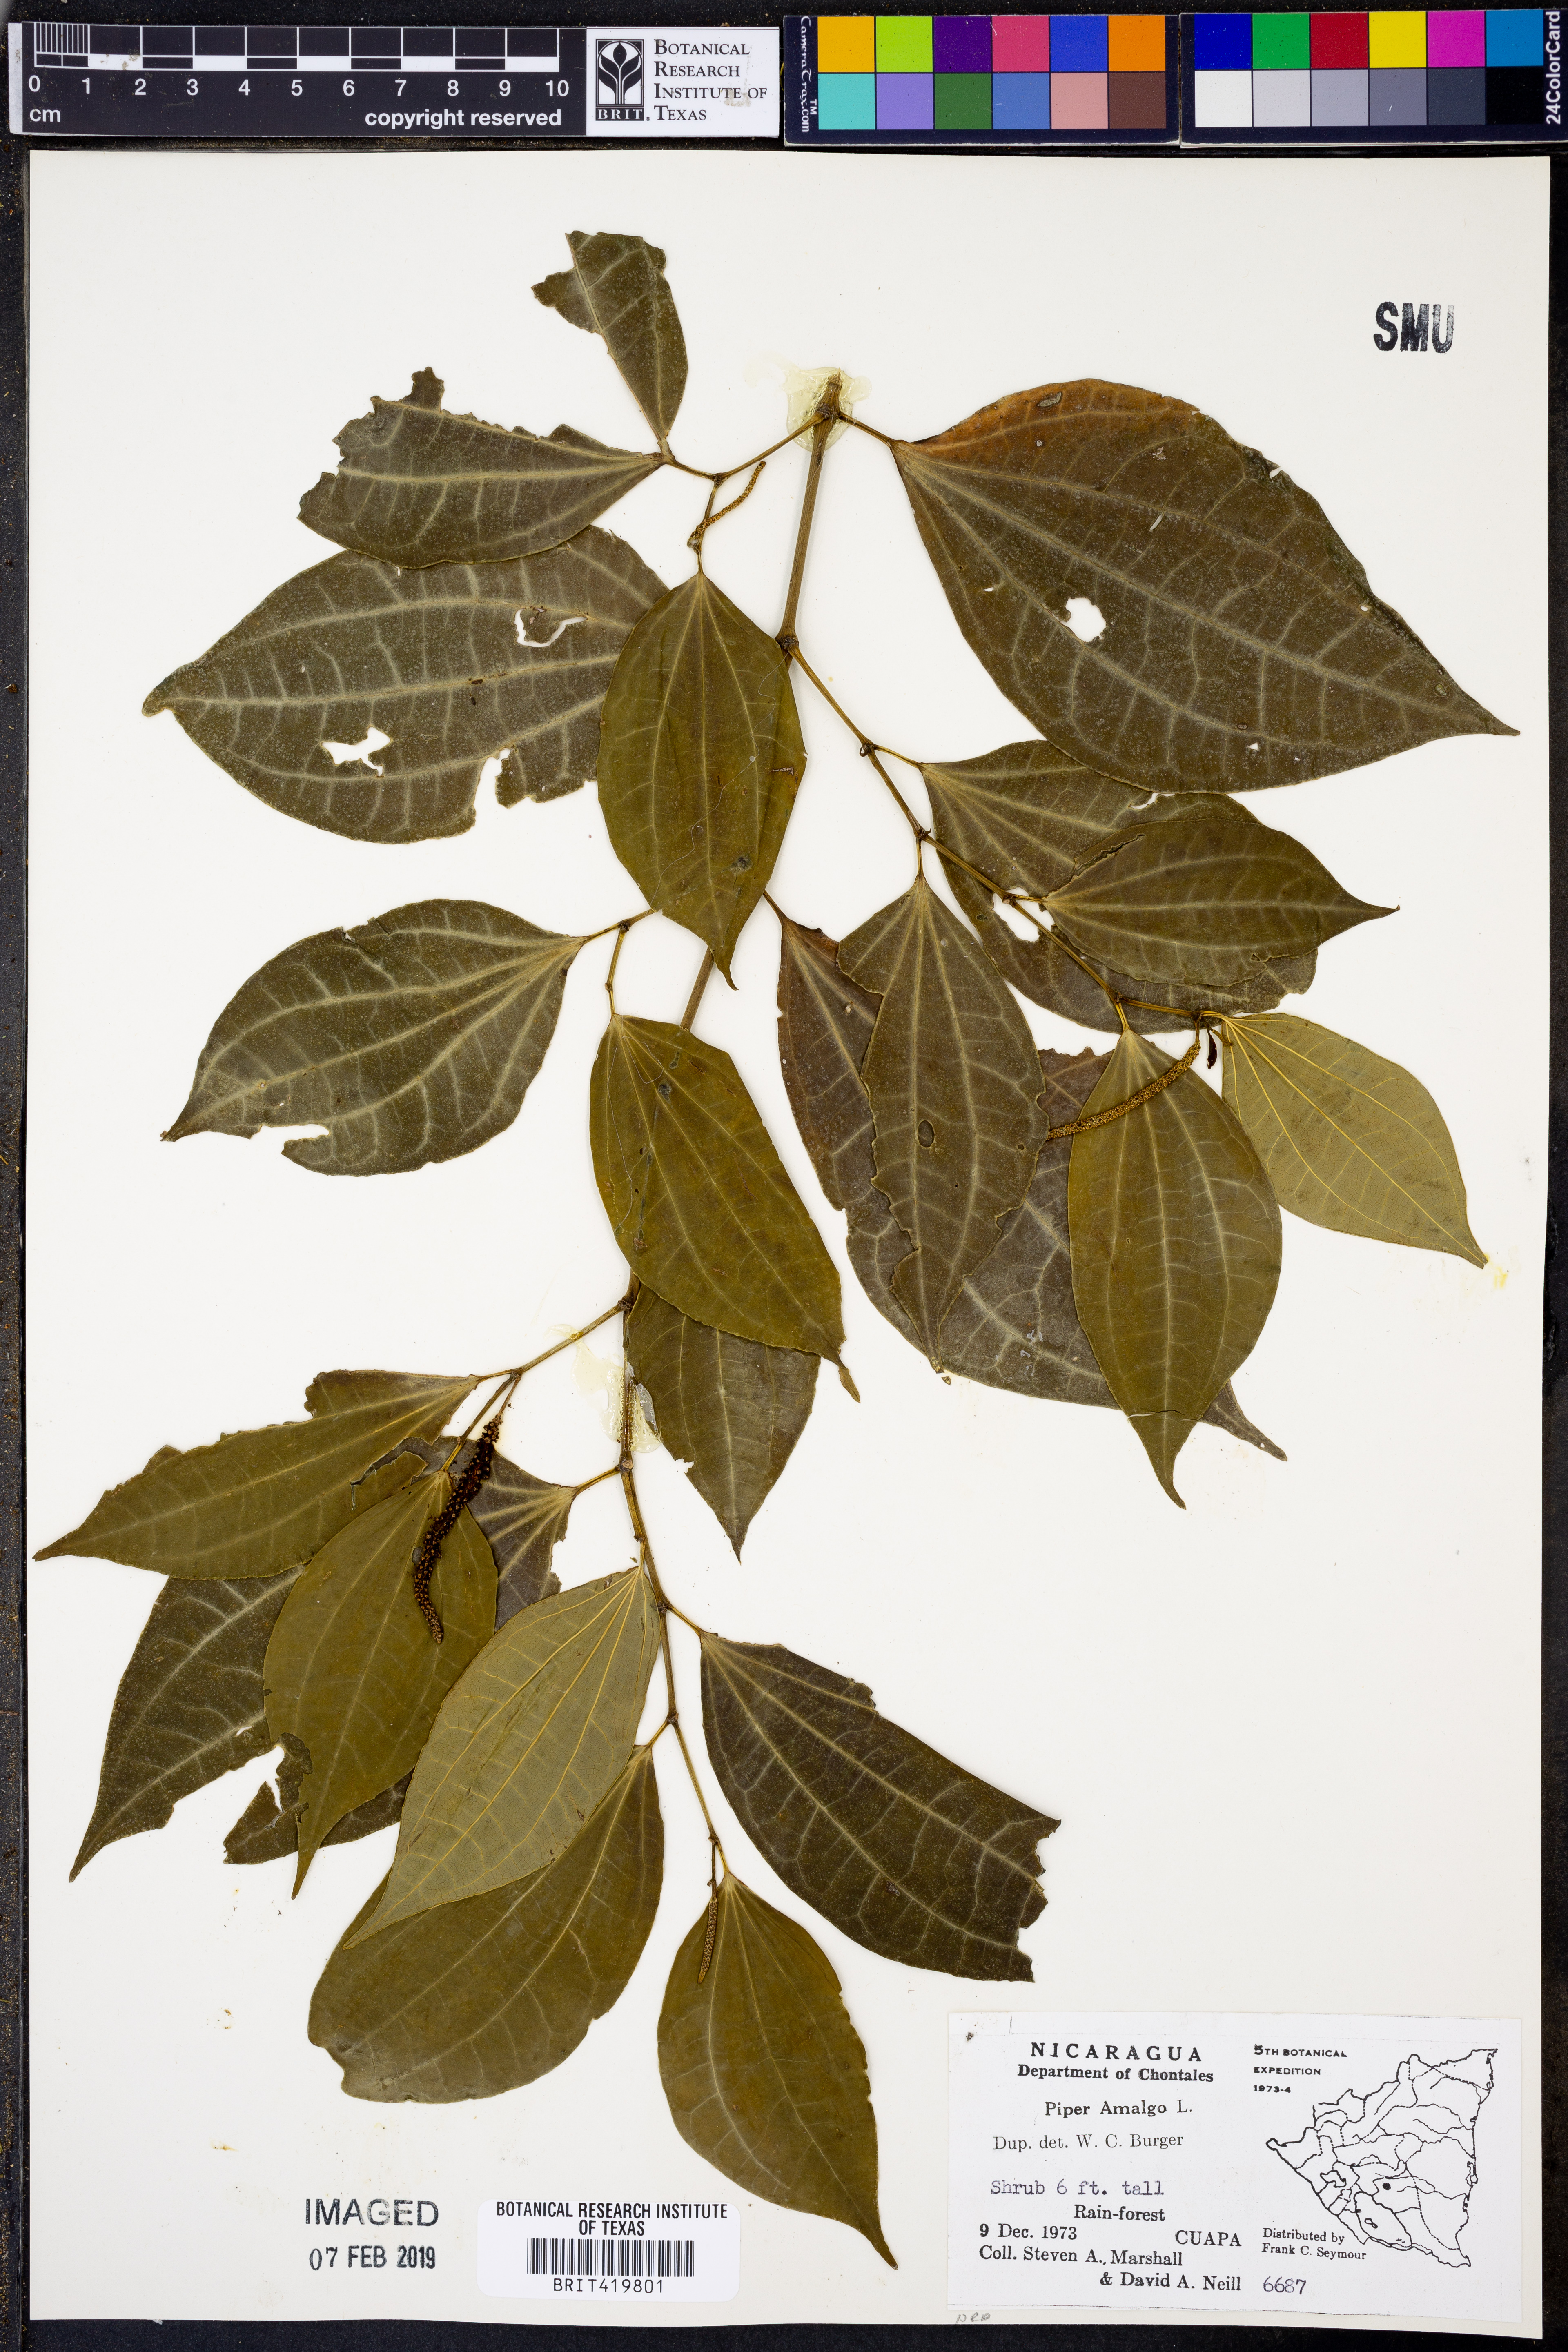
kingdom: Plantae
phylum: Tracheophyta
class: Magnoliopsida
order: Piperales
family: Piperaceae
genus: Piper
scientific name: Piper amalago
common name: Pepper-elder
